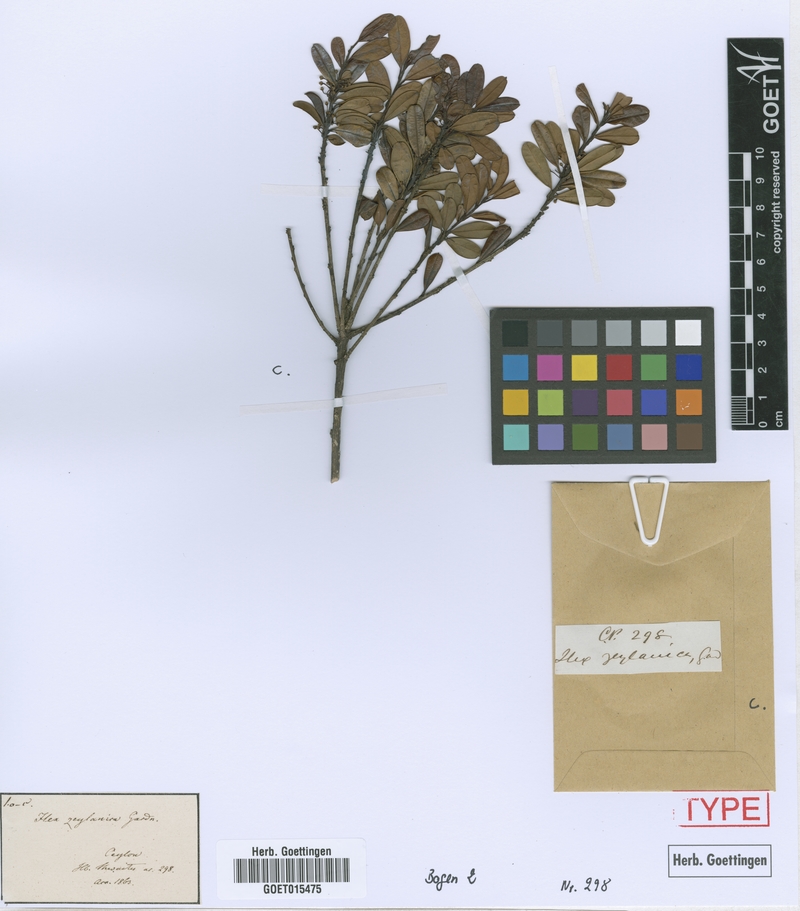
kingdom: Plantae
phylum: Tracheophyta
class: Magnoliopsida
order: Aquifoliales
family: Aquifoliaceae
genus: Ilex
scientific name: Ilex walkeri
